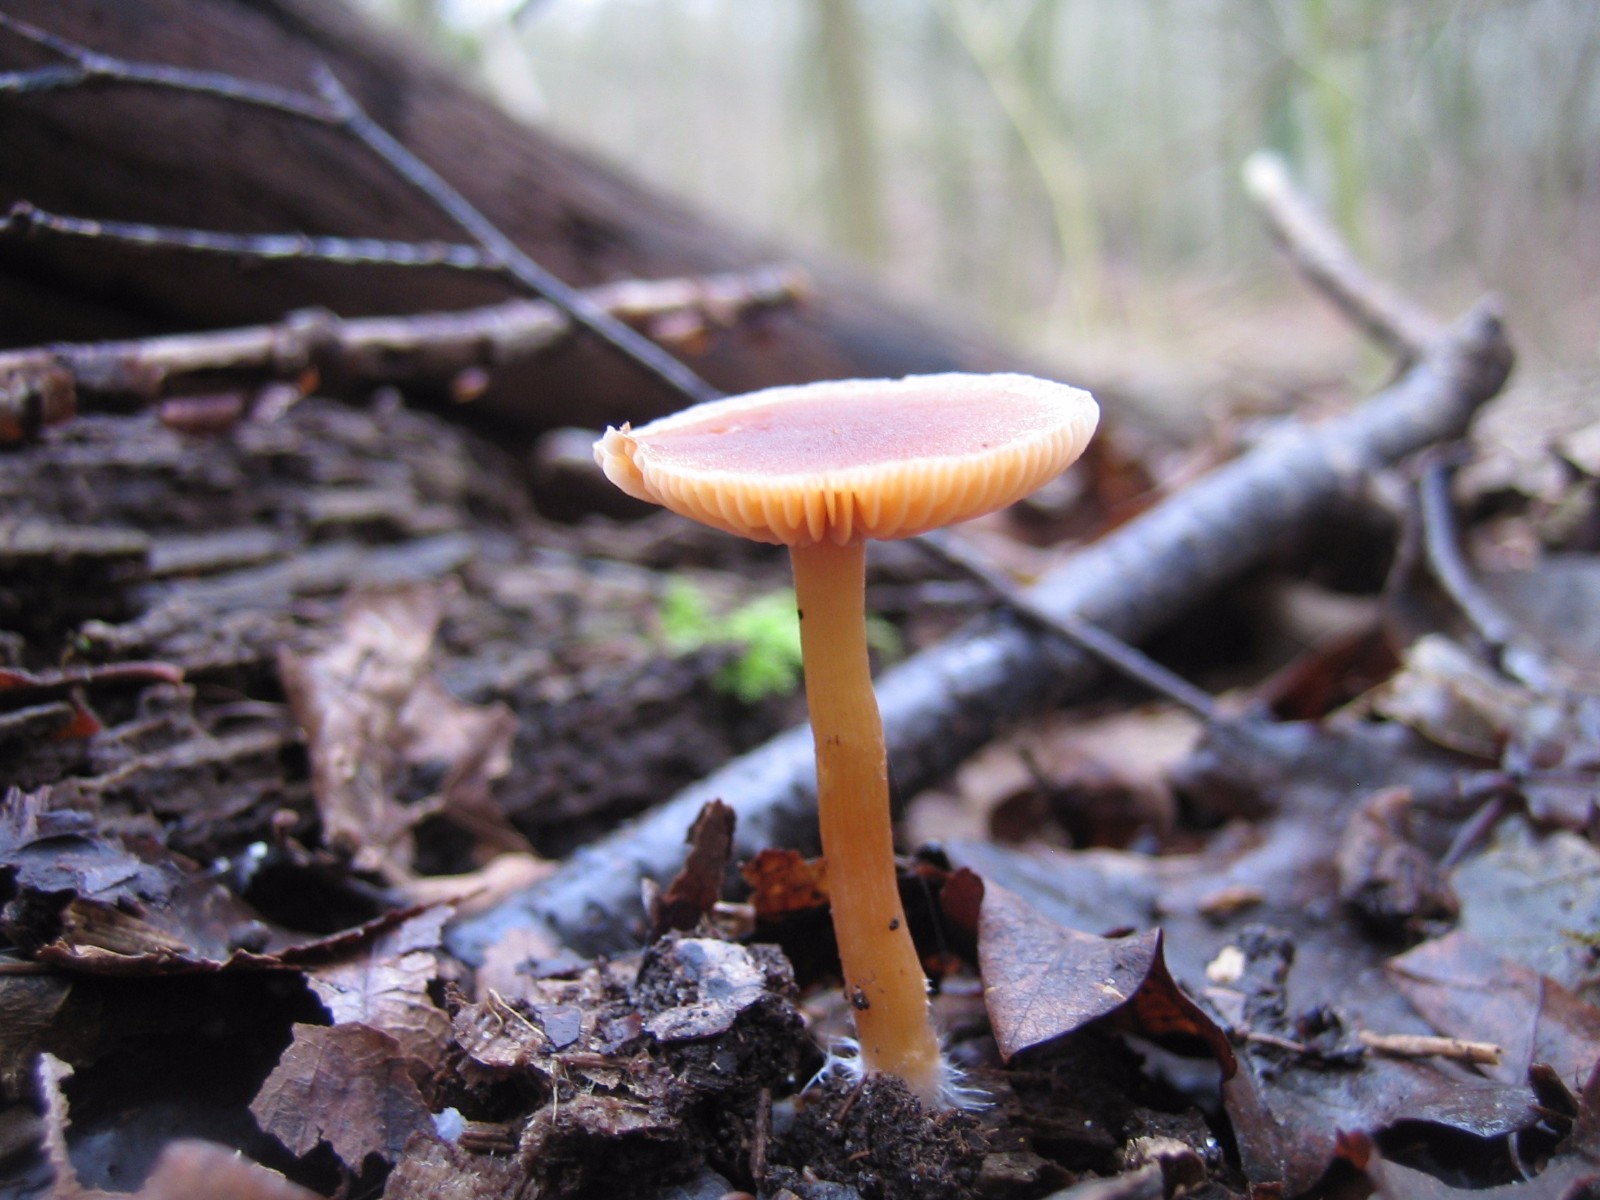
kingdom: Fungi
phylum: Basidiomycota
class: Agaricomycetes
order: Agaricales
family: Tubariaceae
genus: Tubaria
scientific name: Tubaria
